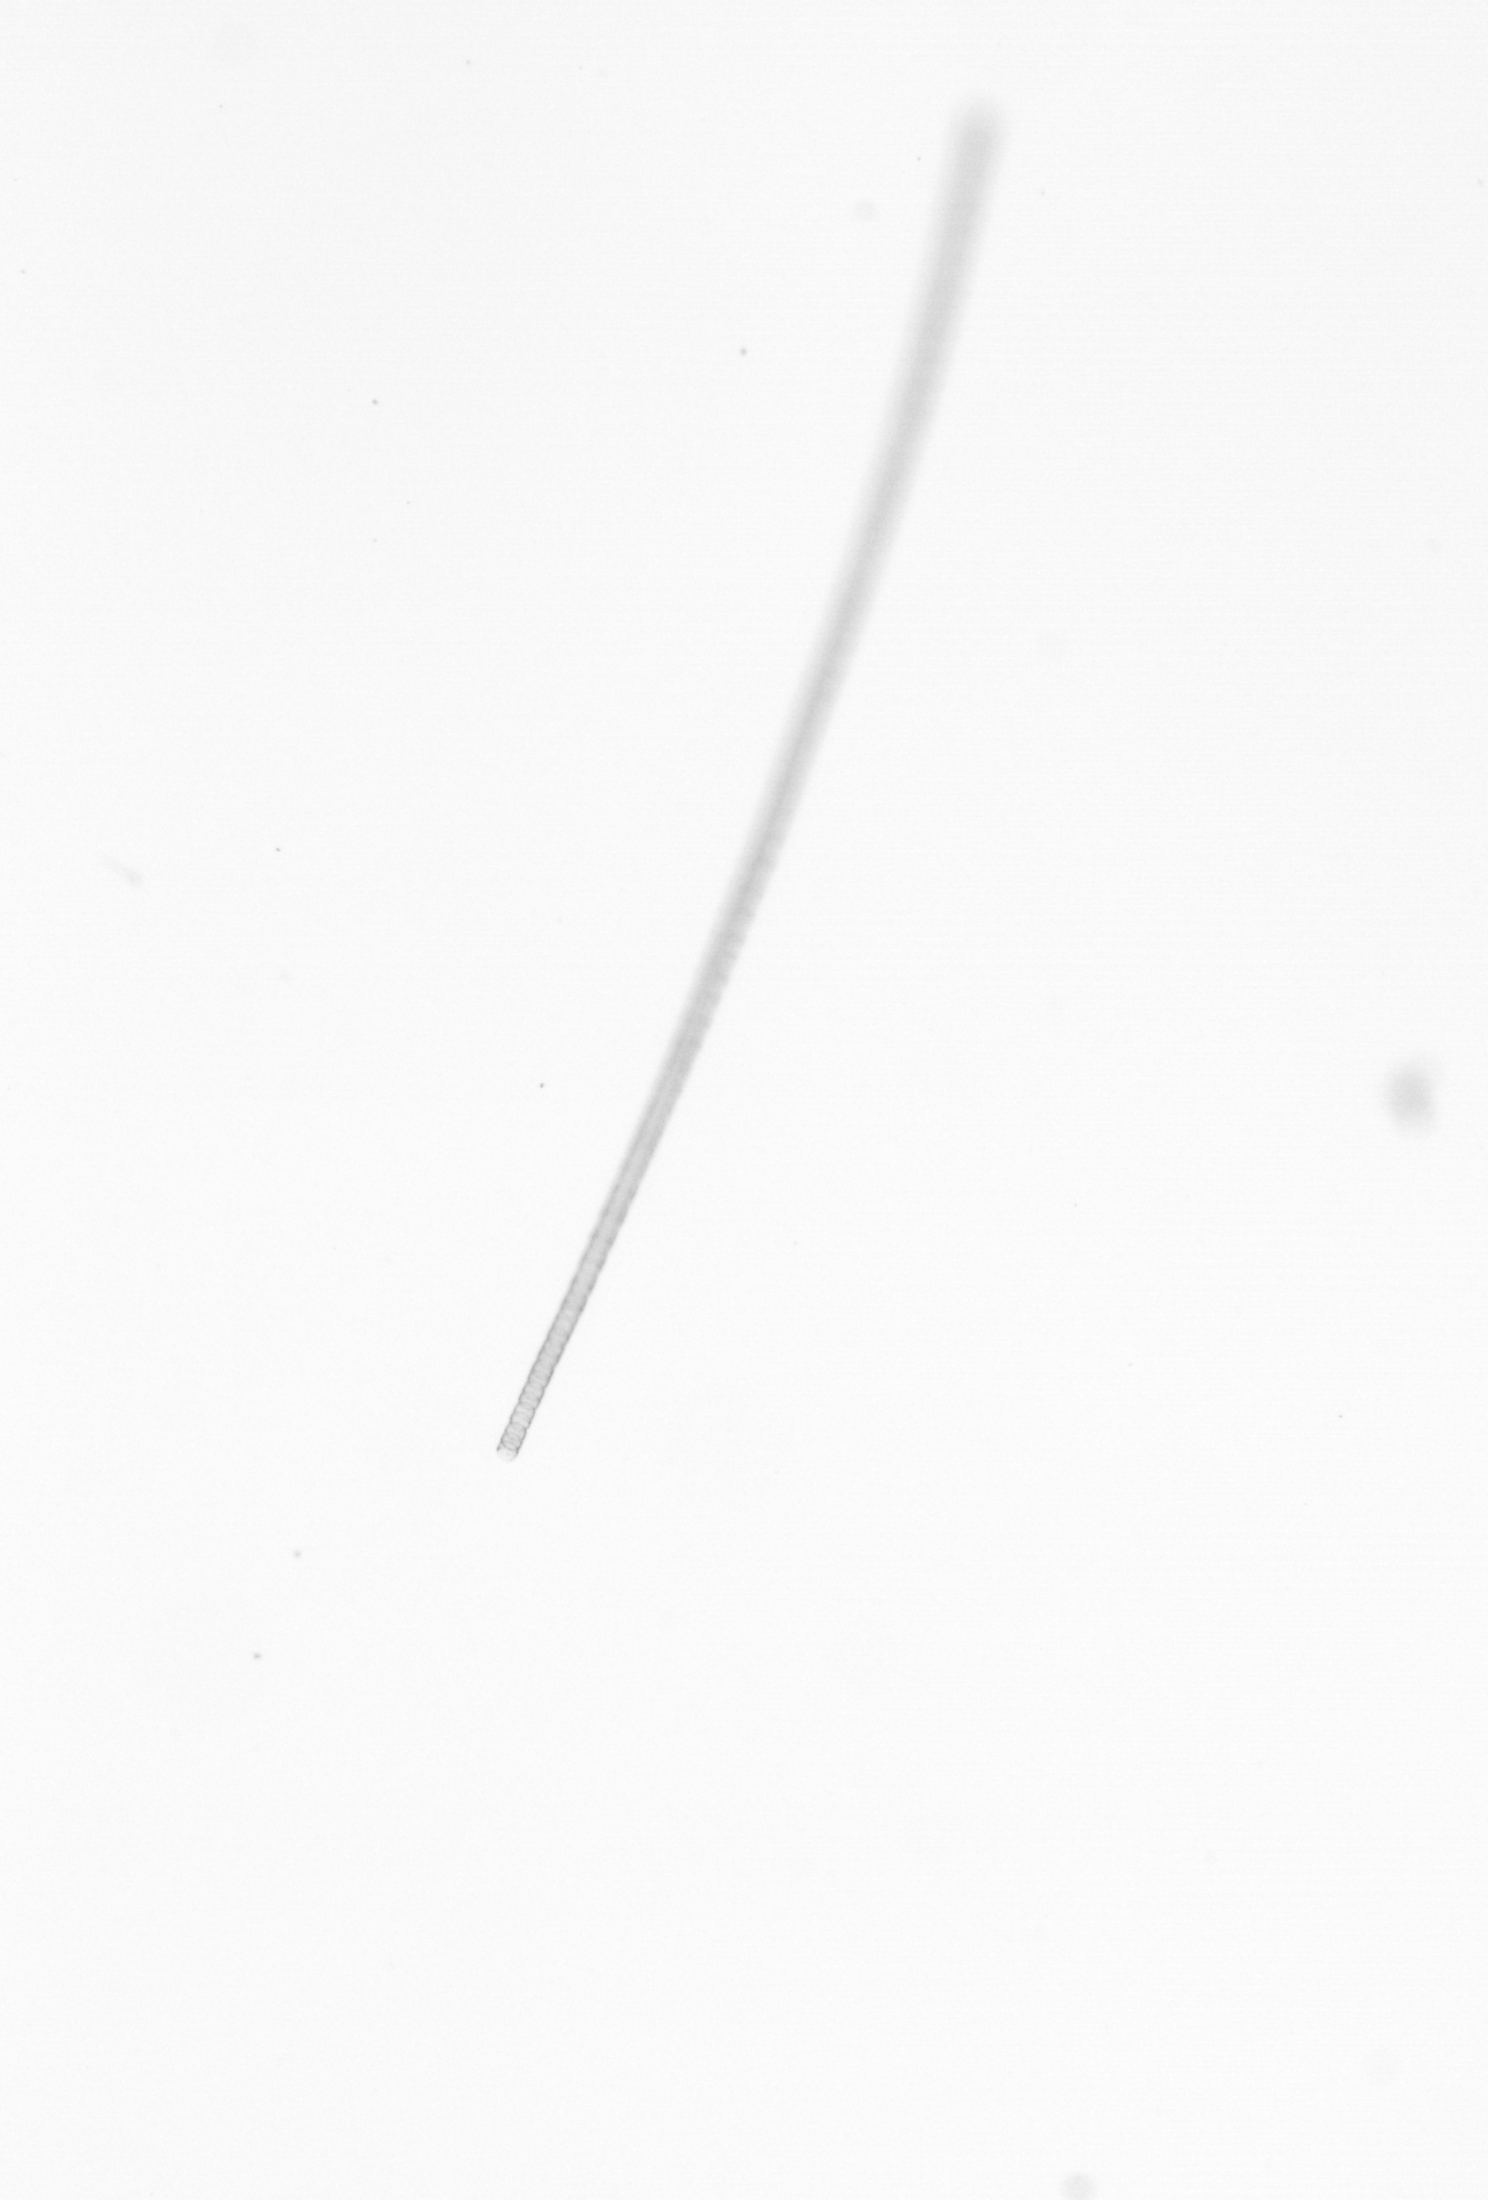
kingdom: Chromista
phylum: Ochrophyta
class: Bacillariophyceae
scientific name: Bacillariophyceae
